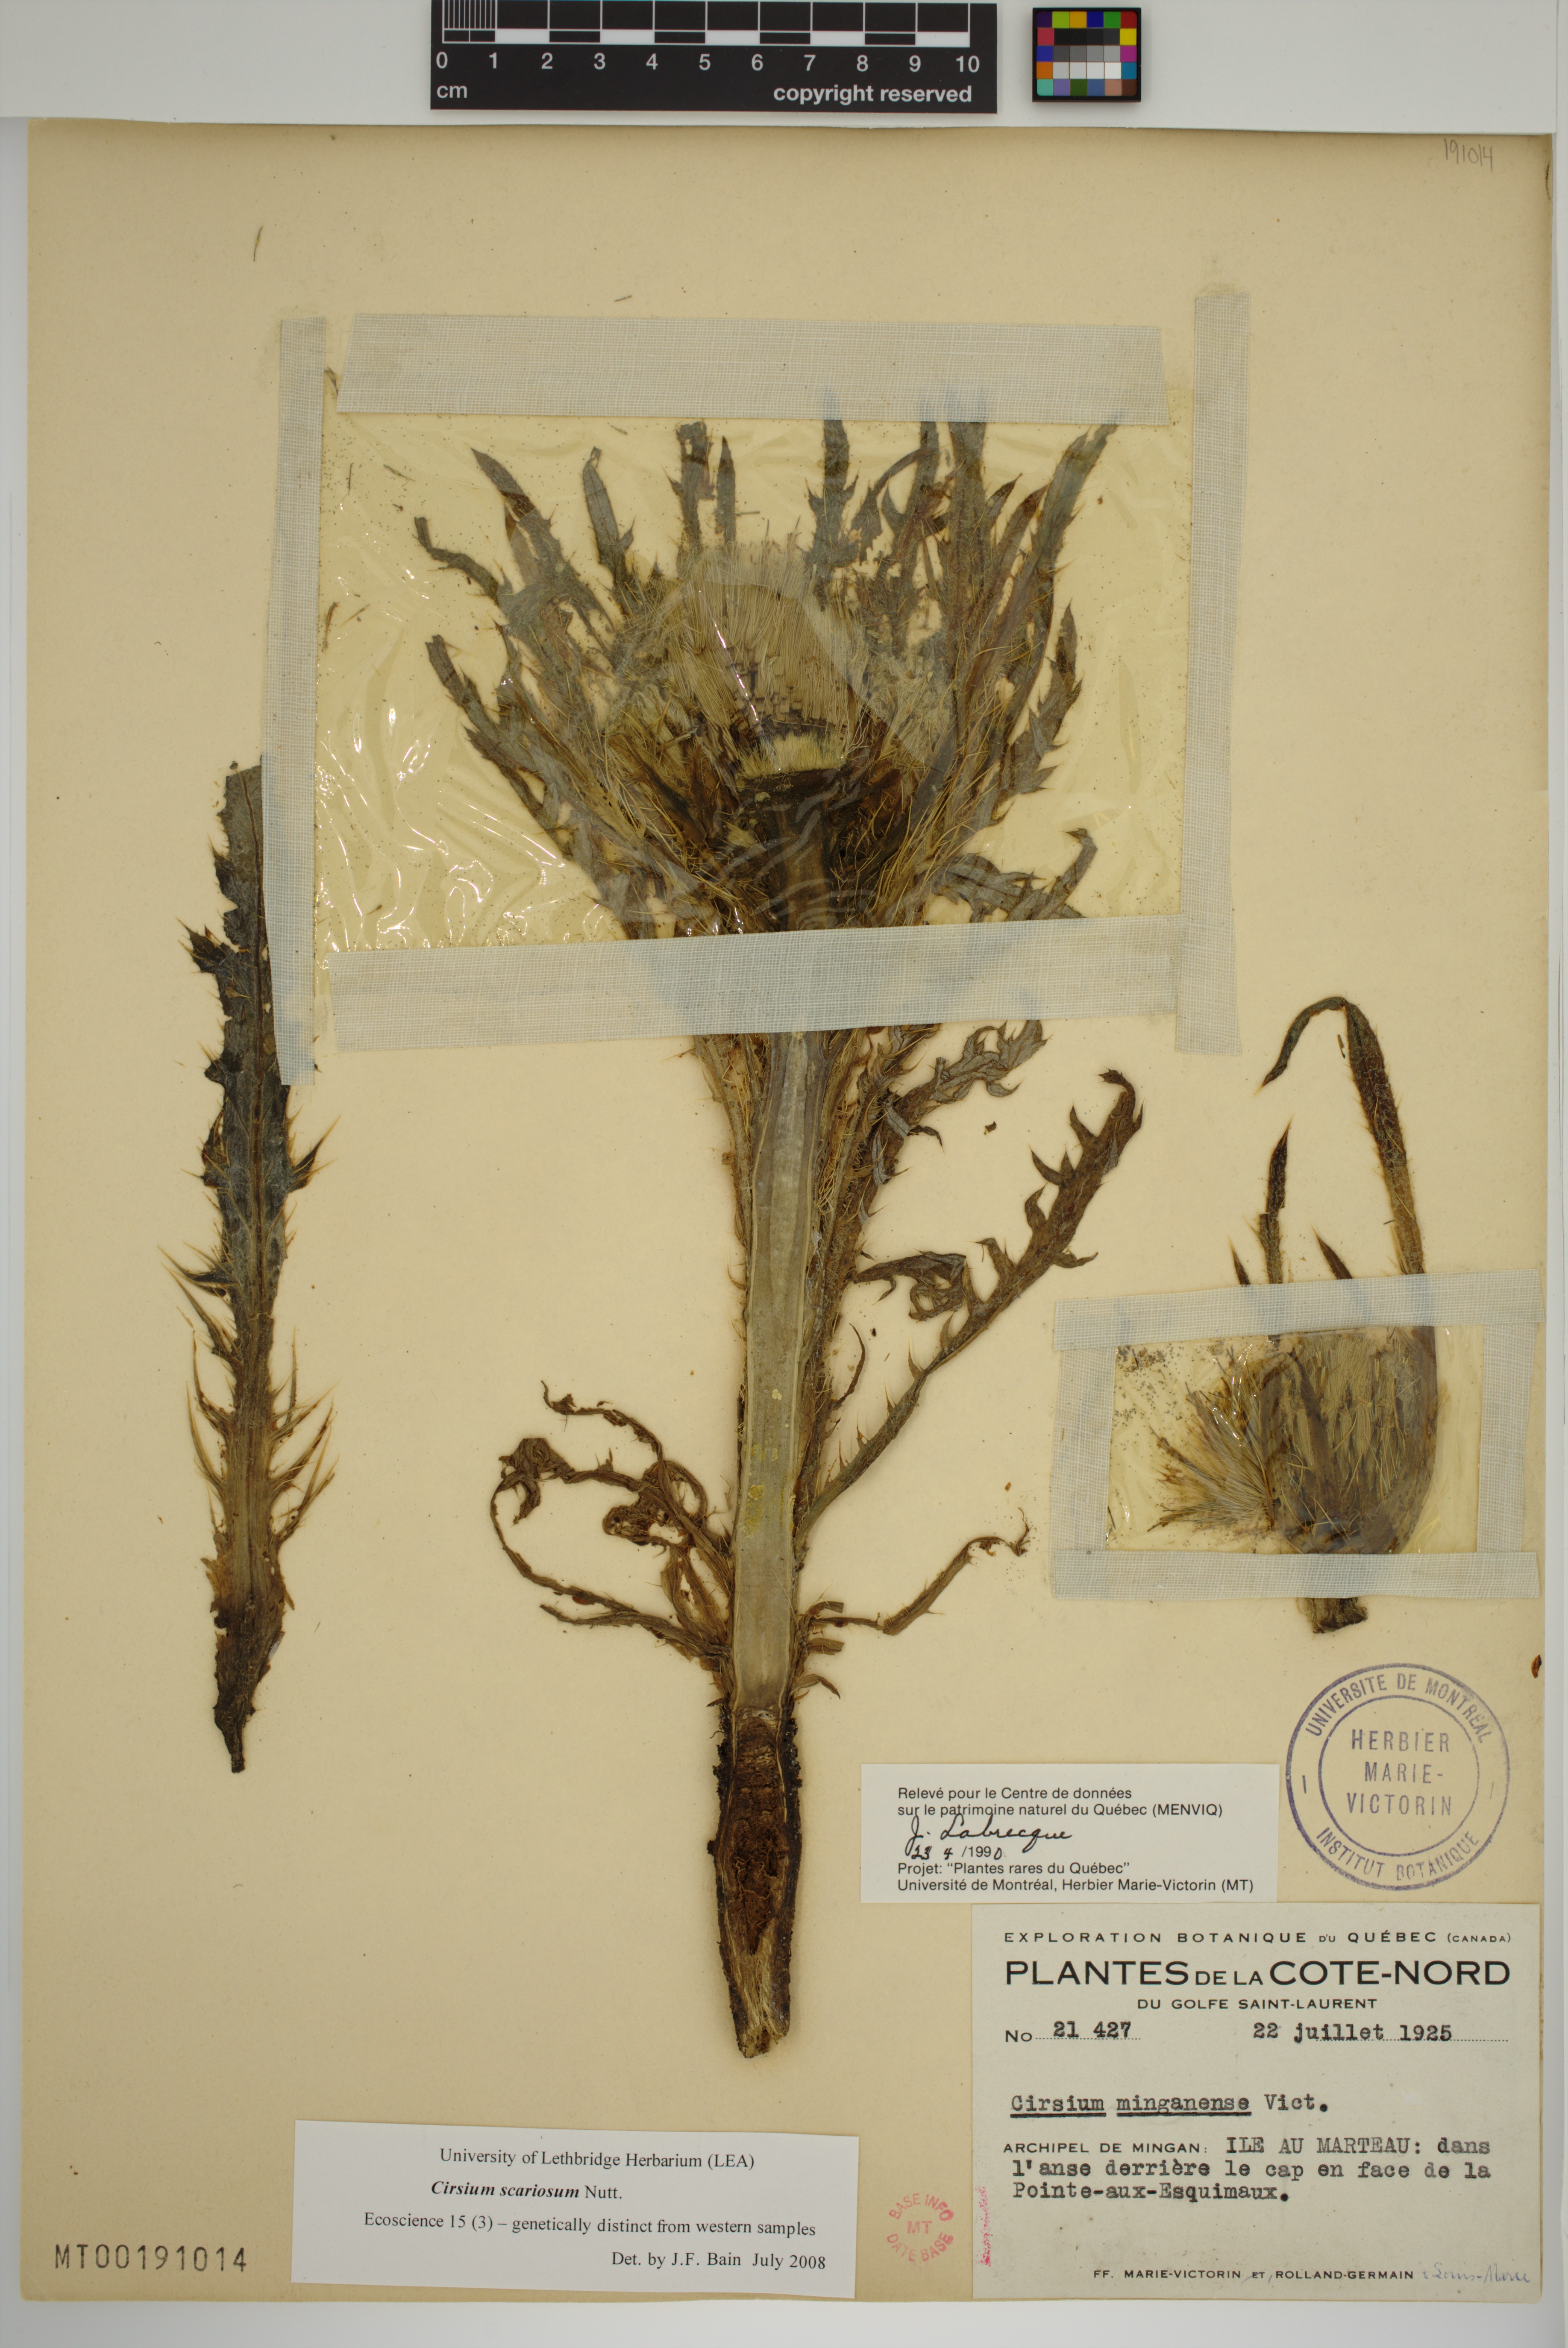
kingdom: Plantae
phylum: Tracheophyta
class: Magnoliopsida
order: Asterales
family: Asteraceae
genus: Cirsium
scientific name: Cirsium scariosum
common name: Meadow thistle
